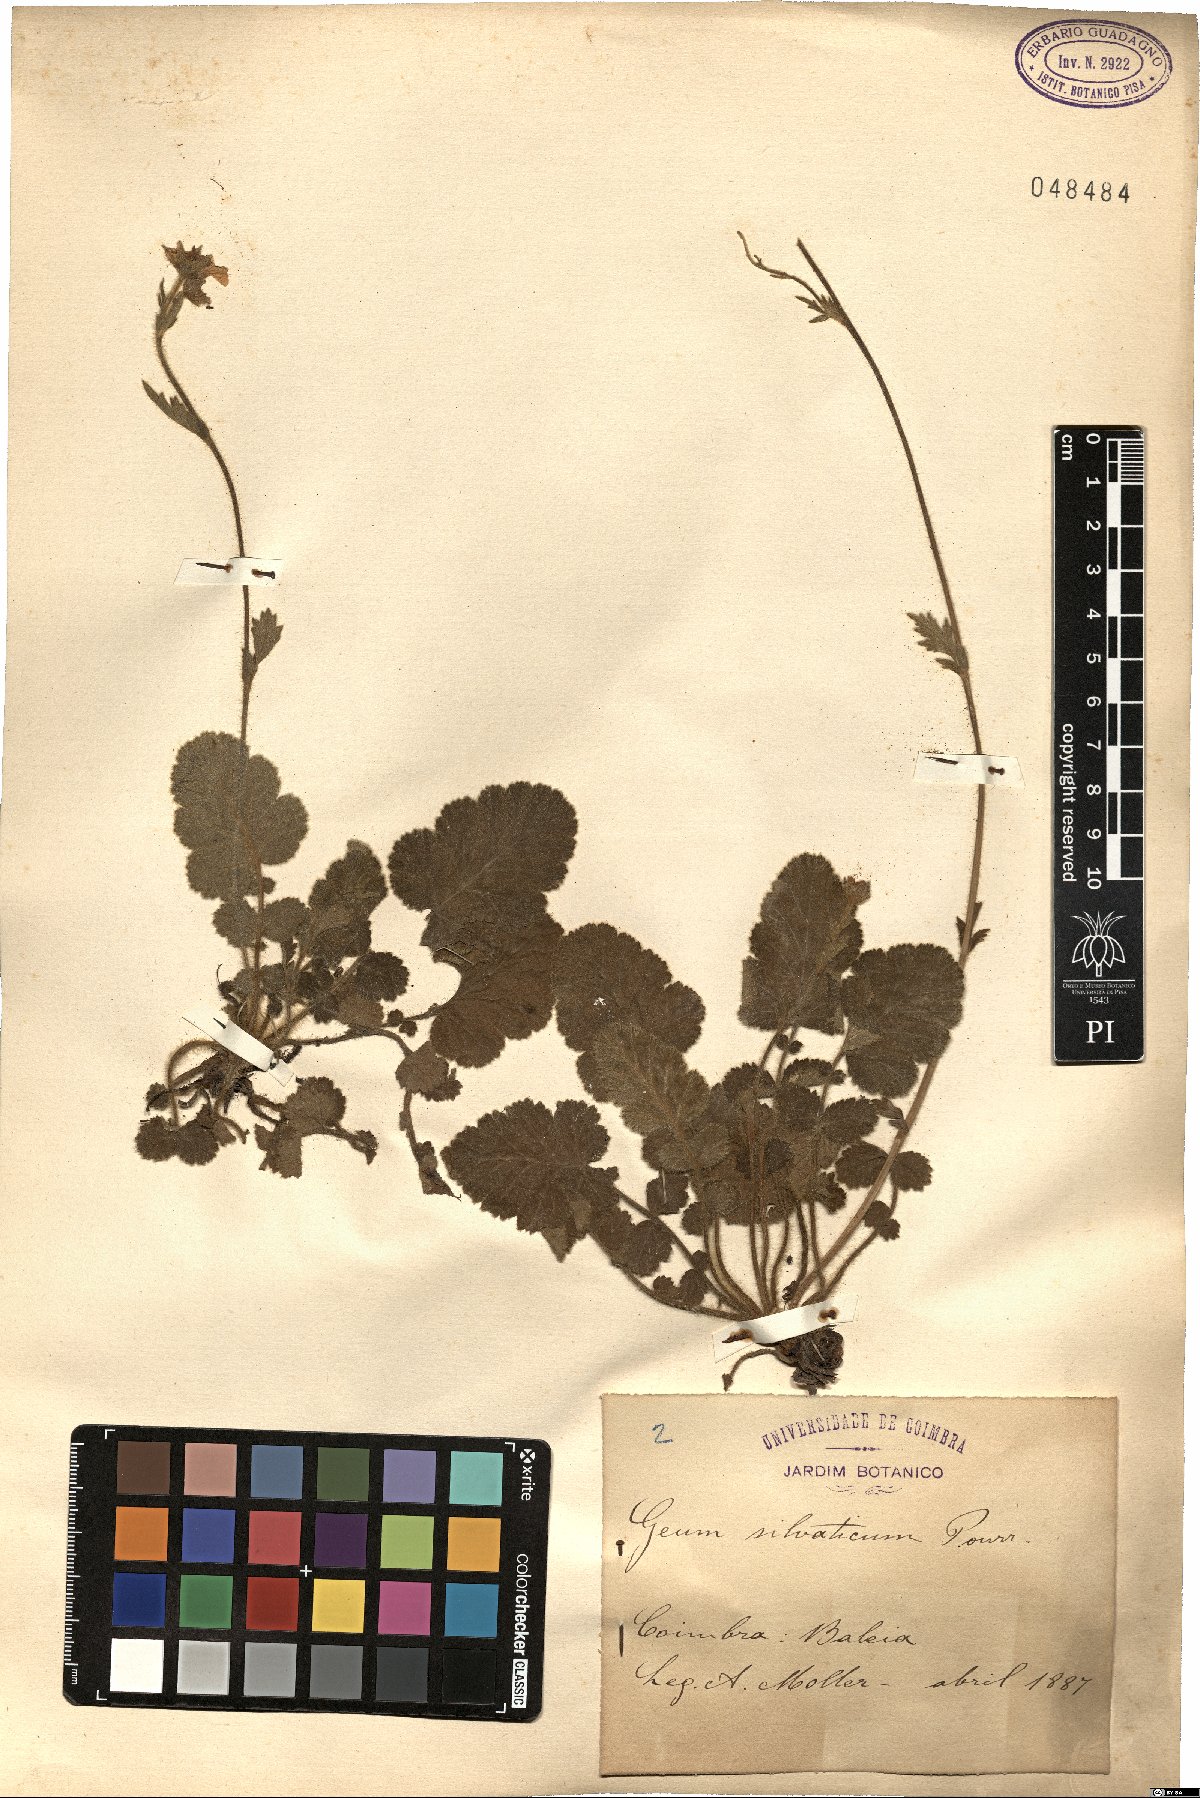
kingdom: Plantae
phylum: Tracheophyta
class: Magnoliopsida
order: Rosales
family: Rosaceae
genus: Geum
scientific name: Geum sylvaticum
